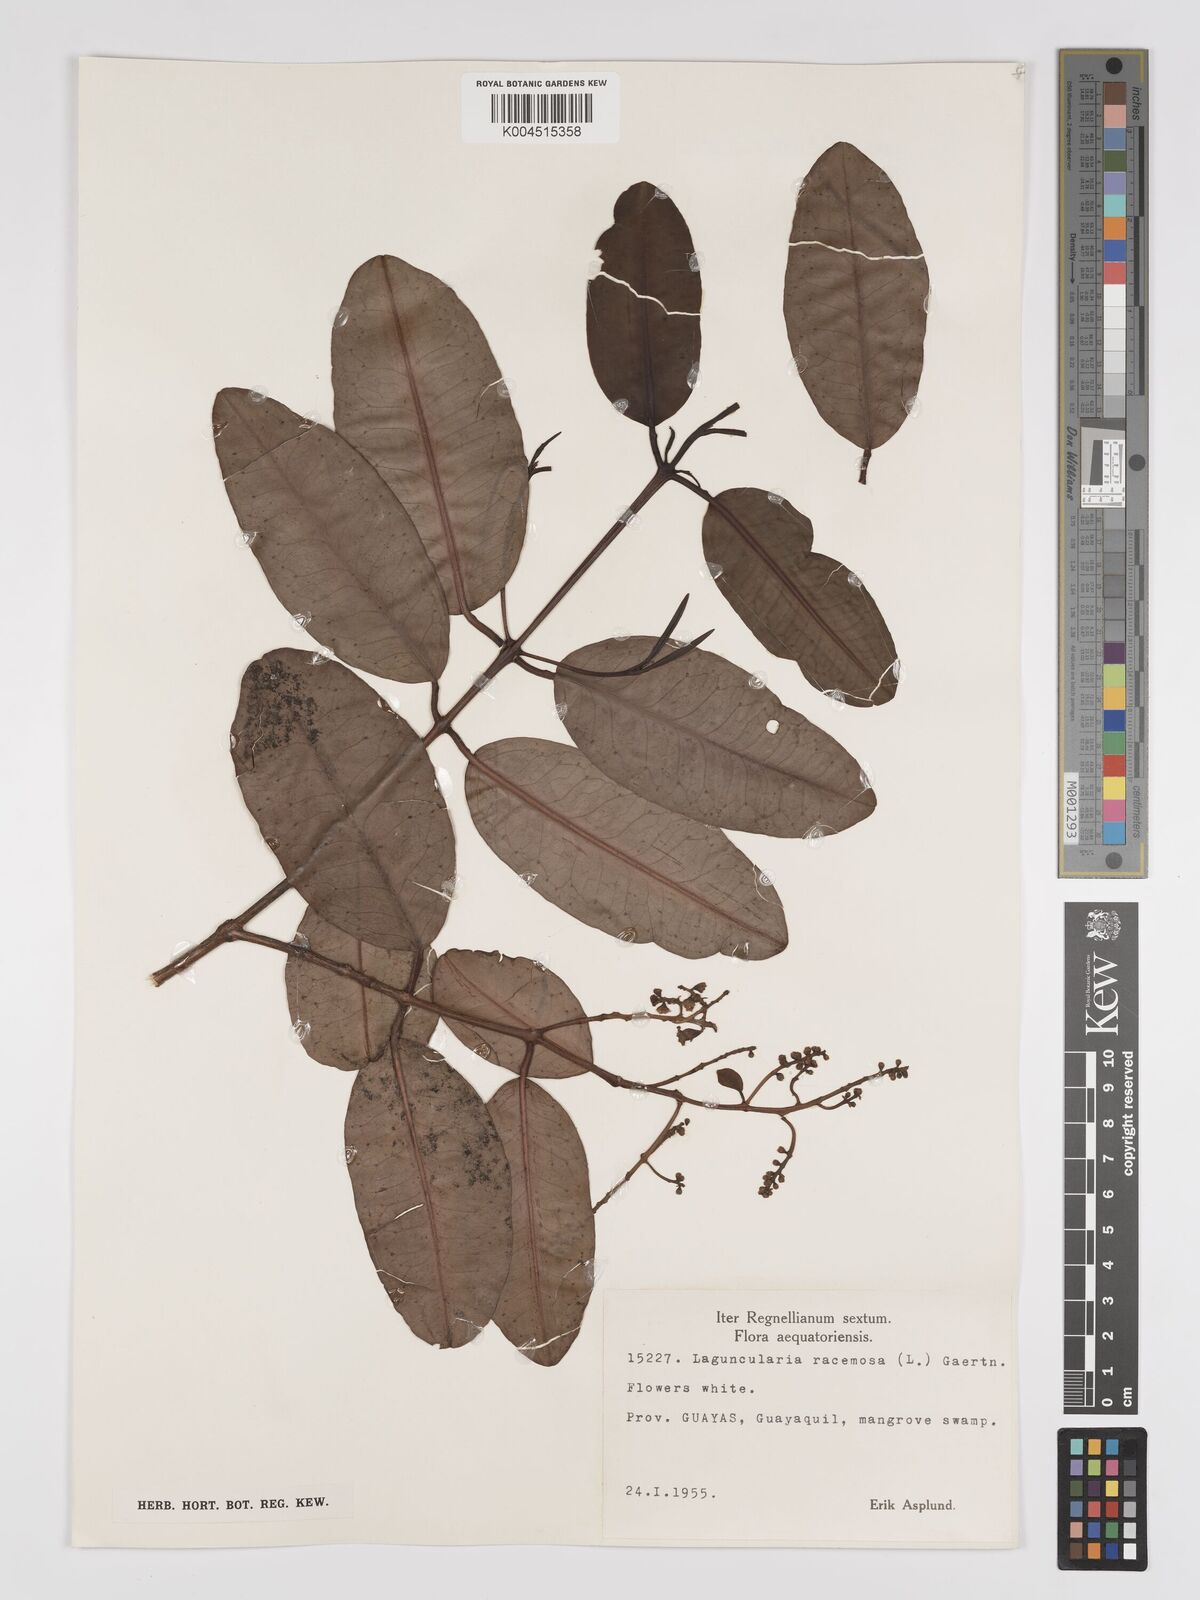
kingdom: Plantae
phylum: Tracheophyta
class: Magnoliopsida
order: Myrtales
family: Combretaceae
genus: Laguncularia
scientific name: Laguncularia racemosa
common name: White mangrove
